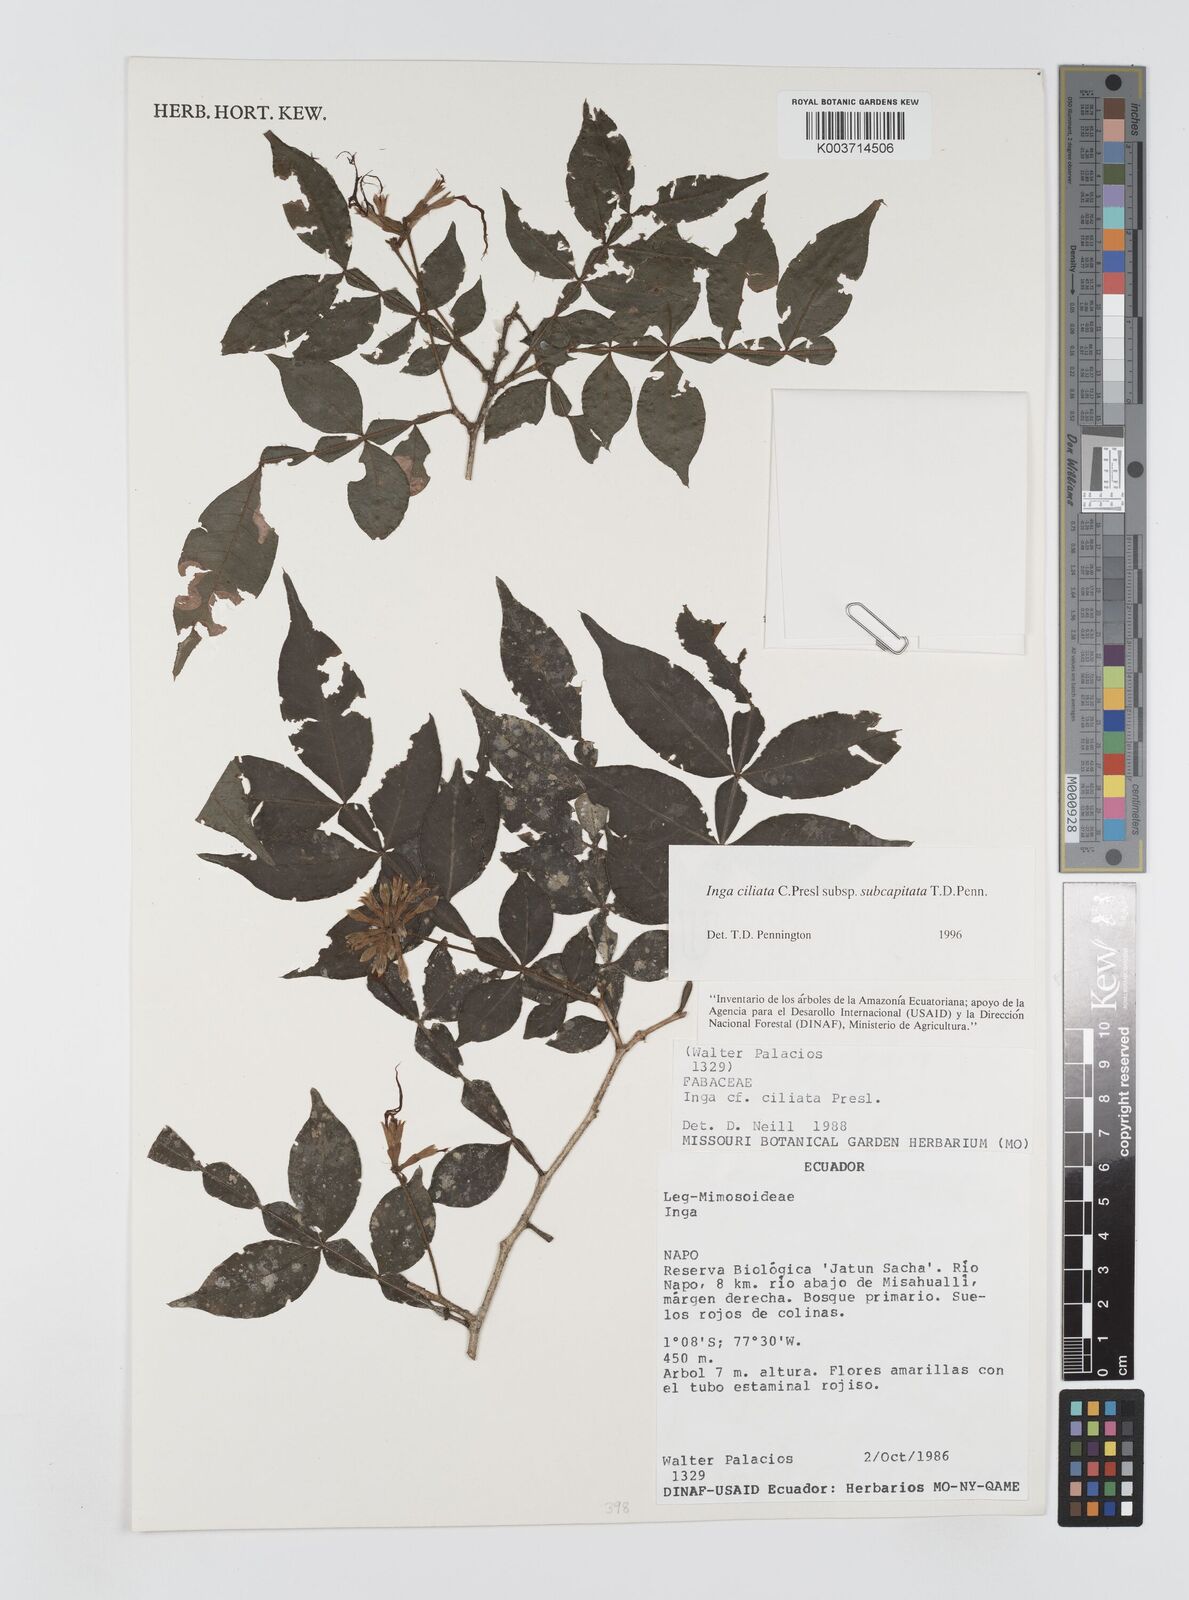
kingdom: Plantae
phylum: Tracheophyta
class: Magnoliopsida
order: Fabales
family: Fabaceae
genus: Inga
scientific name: Inga ciliata
